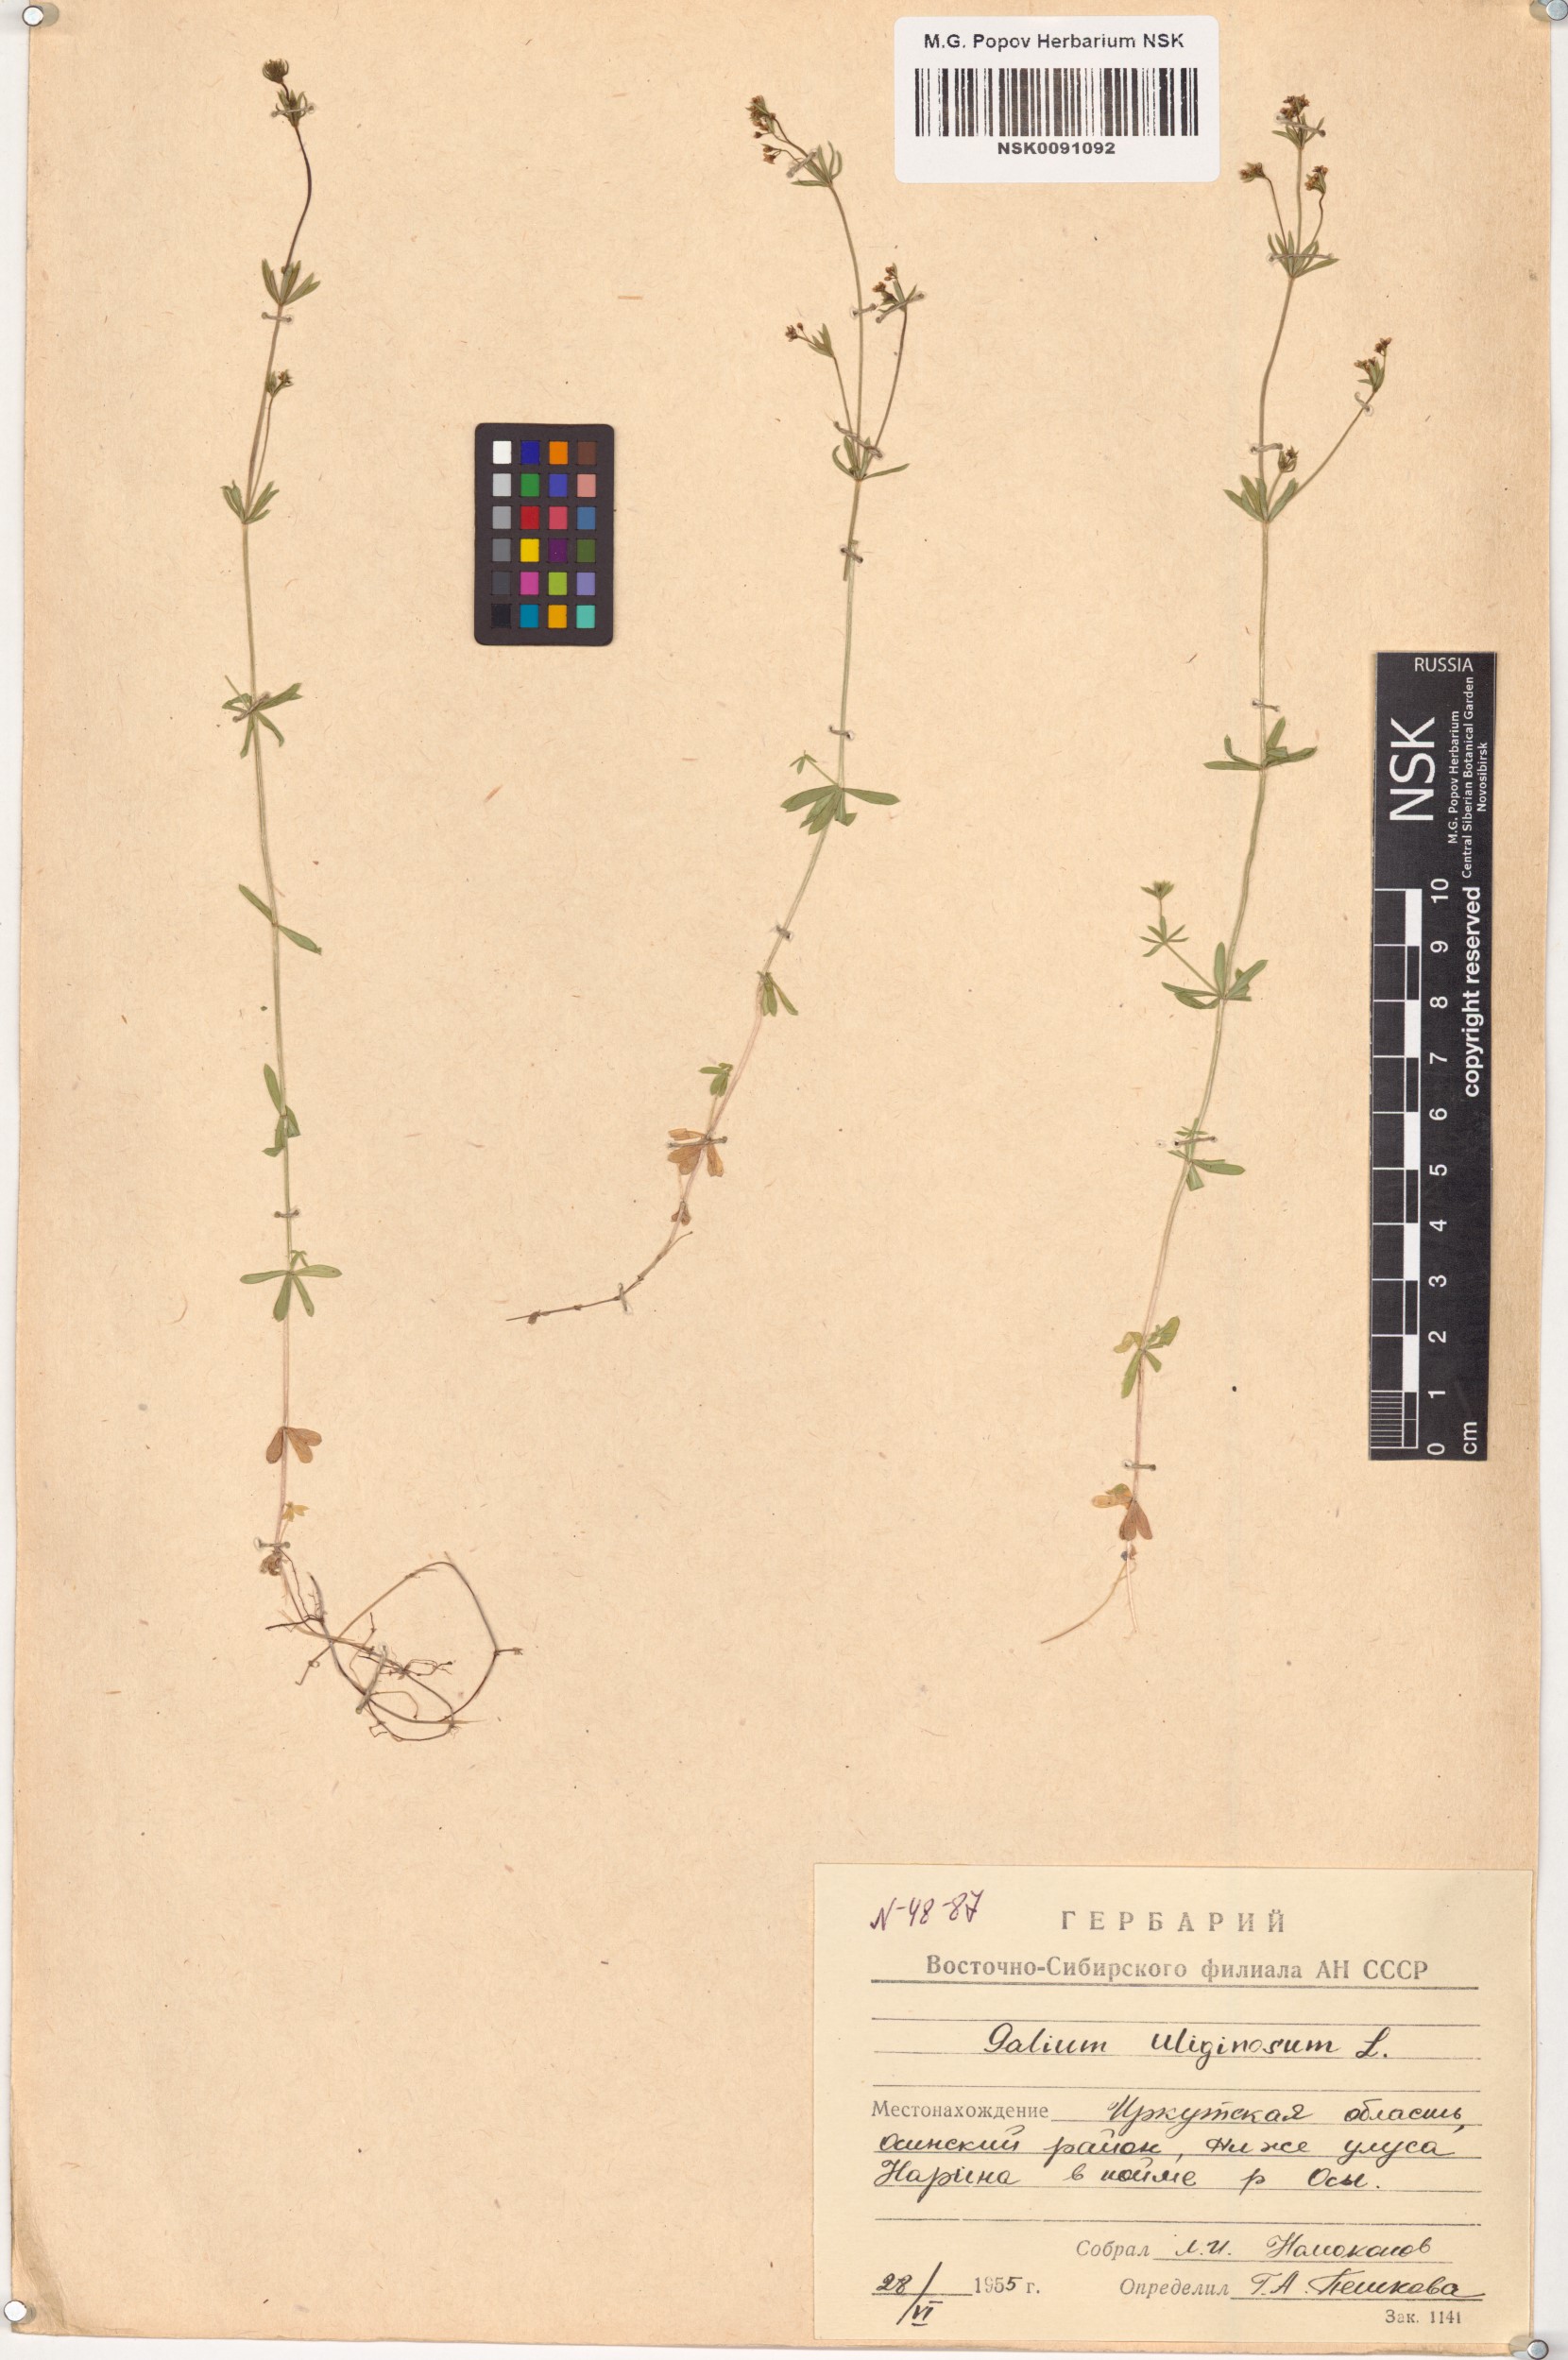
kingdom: Plantae
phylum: Tracheophyta
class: Magnoliopsida
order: Gentianales
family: Rubiaceae
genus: Galium
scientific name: Galium uliginosum
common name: Fen bedstraw
